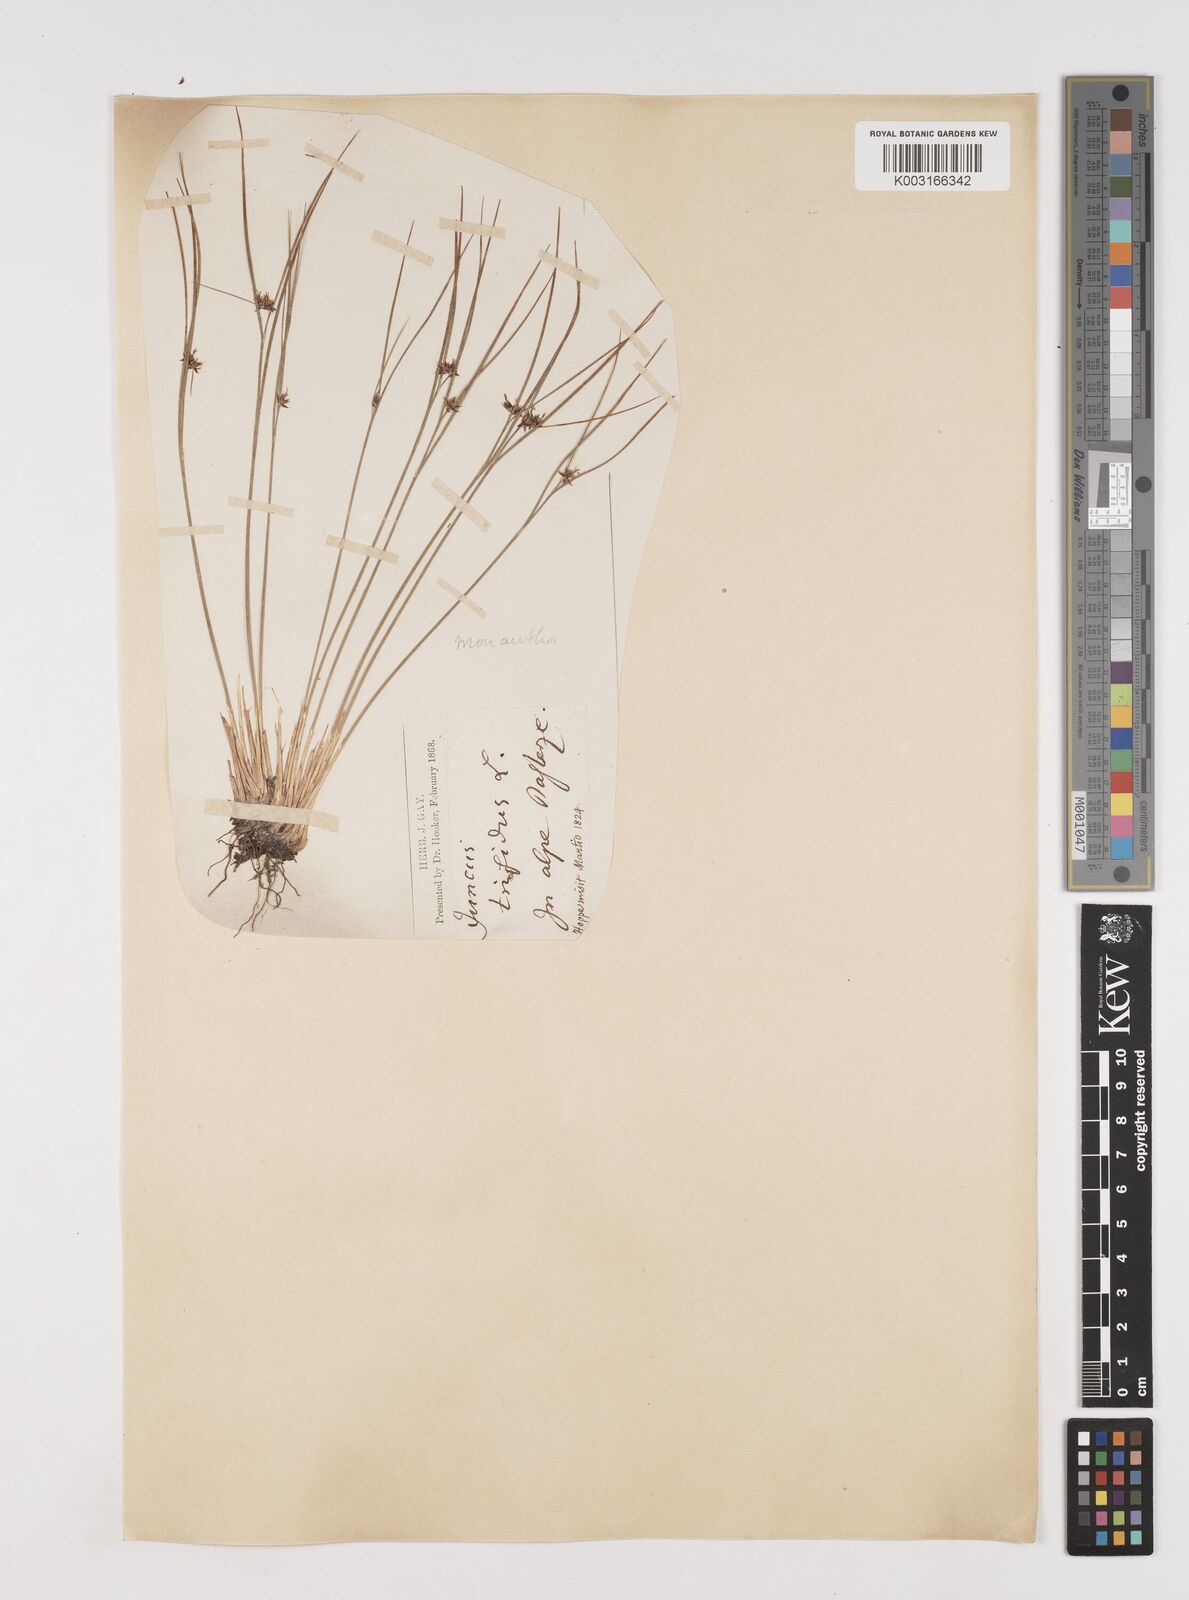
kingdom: Plantae
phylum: Tracheophyta
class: Liliopsida
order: Poales
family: Juncaceae
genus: Oreojuncus
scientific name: Oreojuncus trifidus
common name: Highland rush
